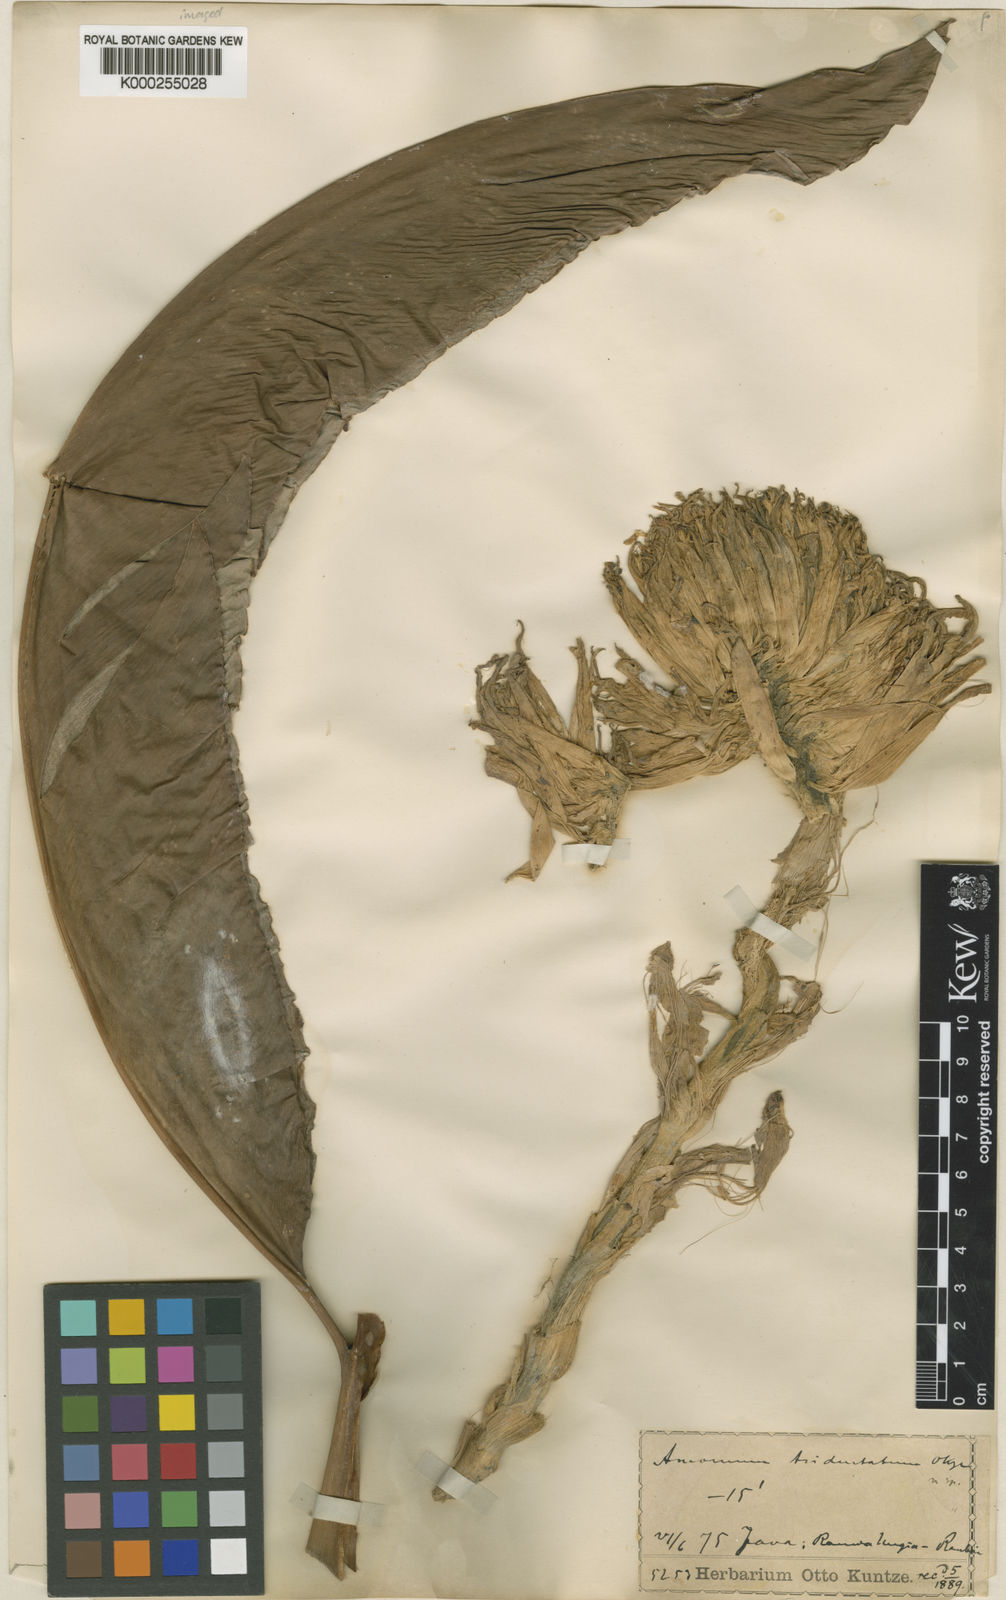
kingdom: Plantae
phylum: Tracheophyta
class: Liliopsida
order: Zingiberales
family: Zingiberaceae
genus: Etlingera
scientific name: Etlingera elatior
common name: Philippine waxflower
